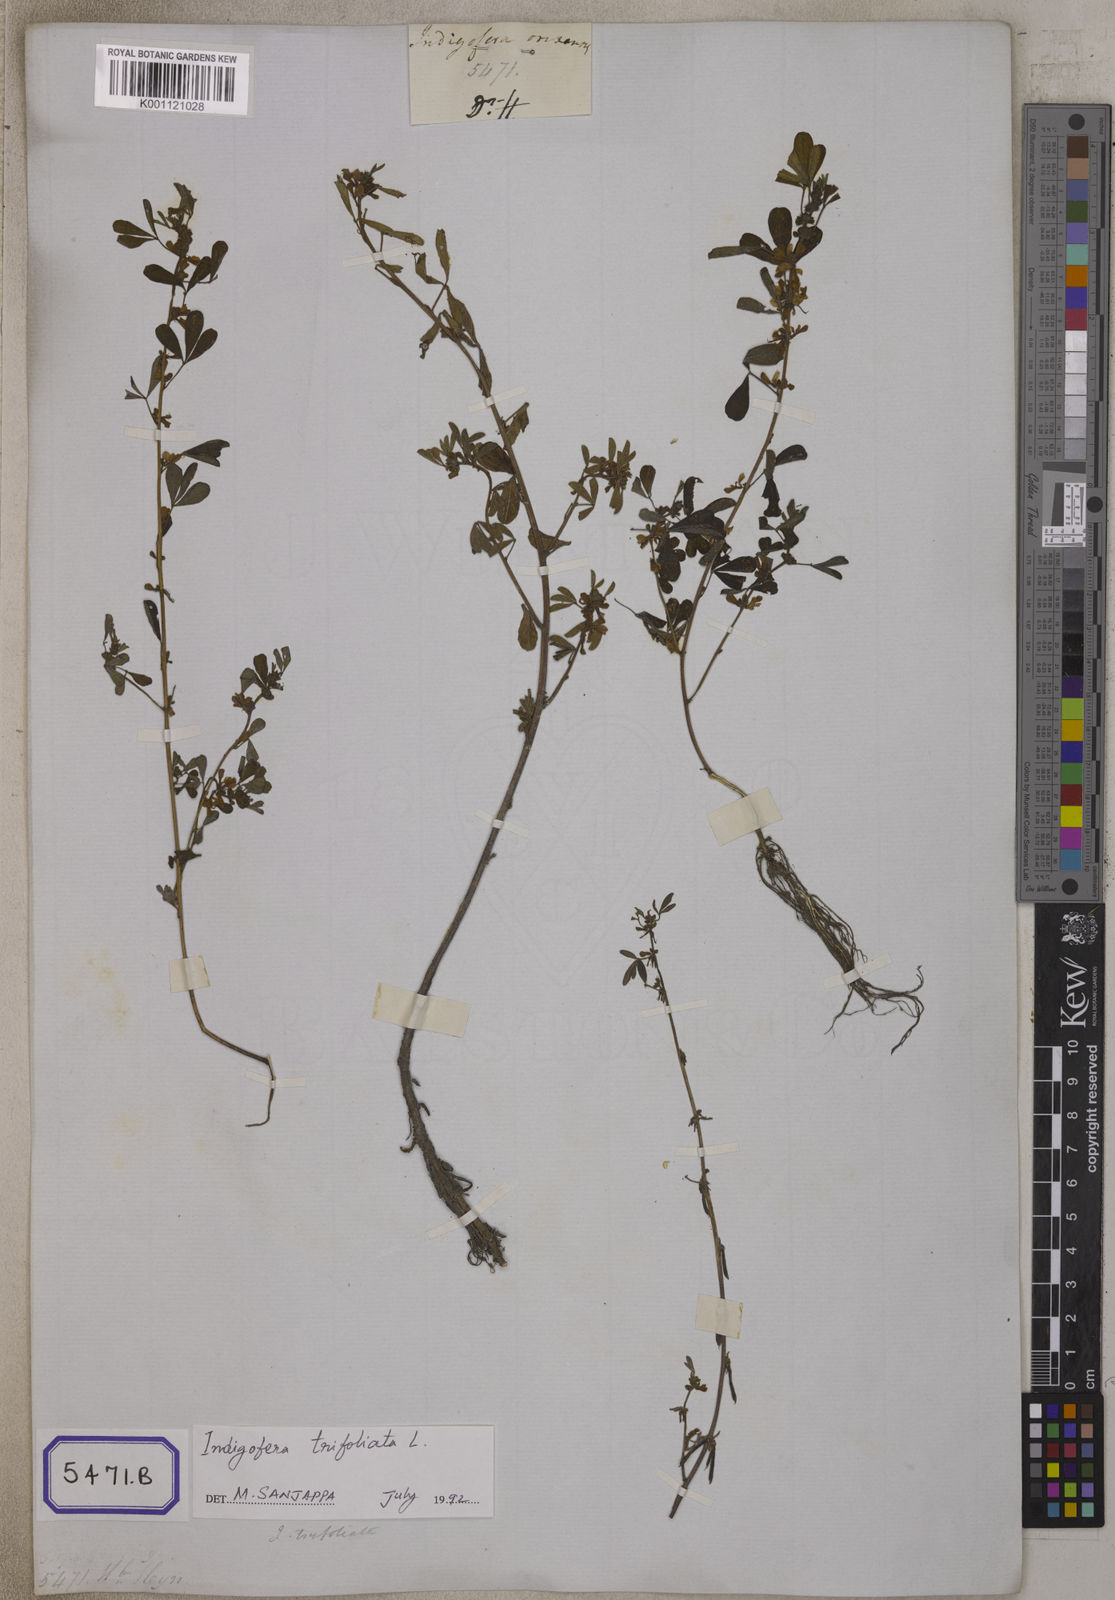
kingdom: Plantae
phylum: Tracheophyta
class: Magnoliopsida
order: Fabales
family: Fabaceae
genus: Indigofera
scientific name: Indigofera trifoliata
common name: Threeleaf indigo
